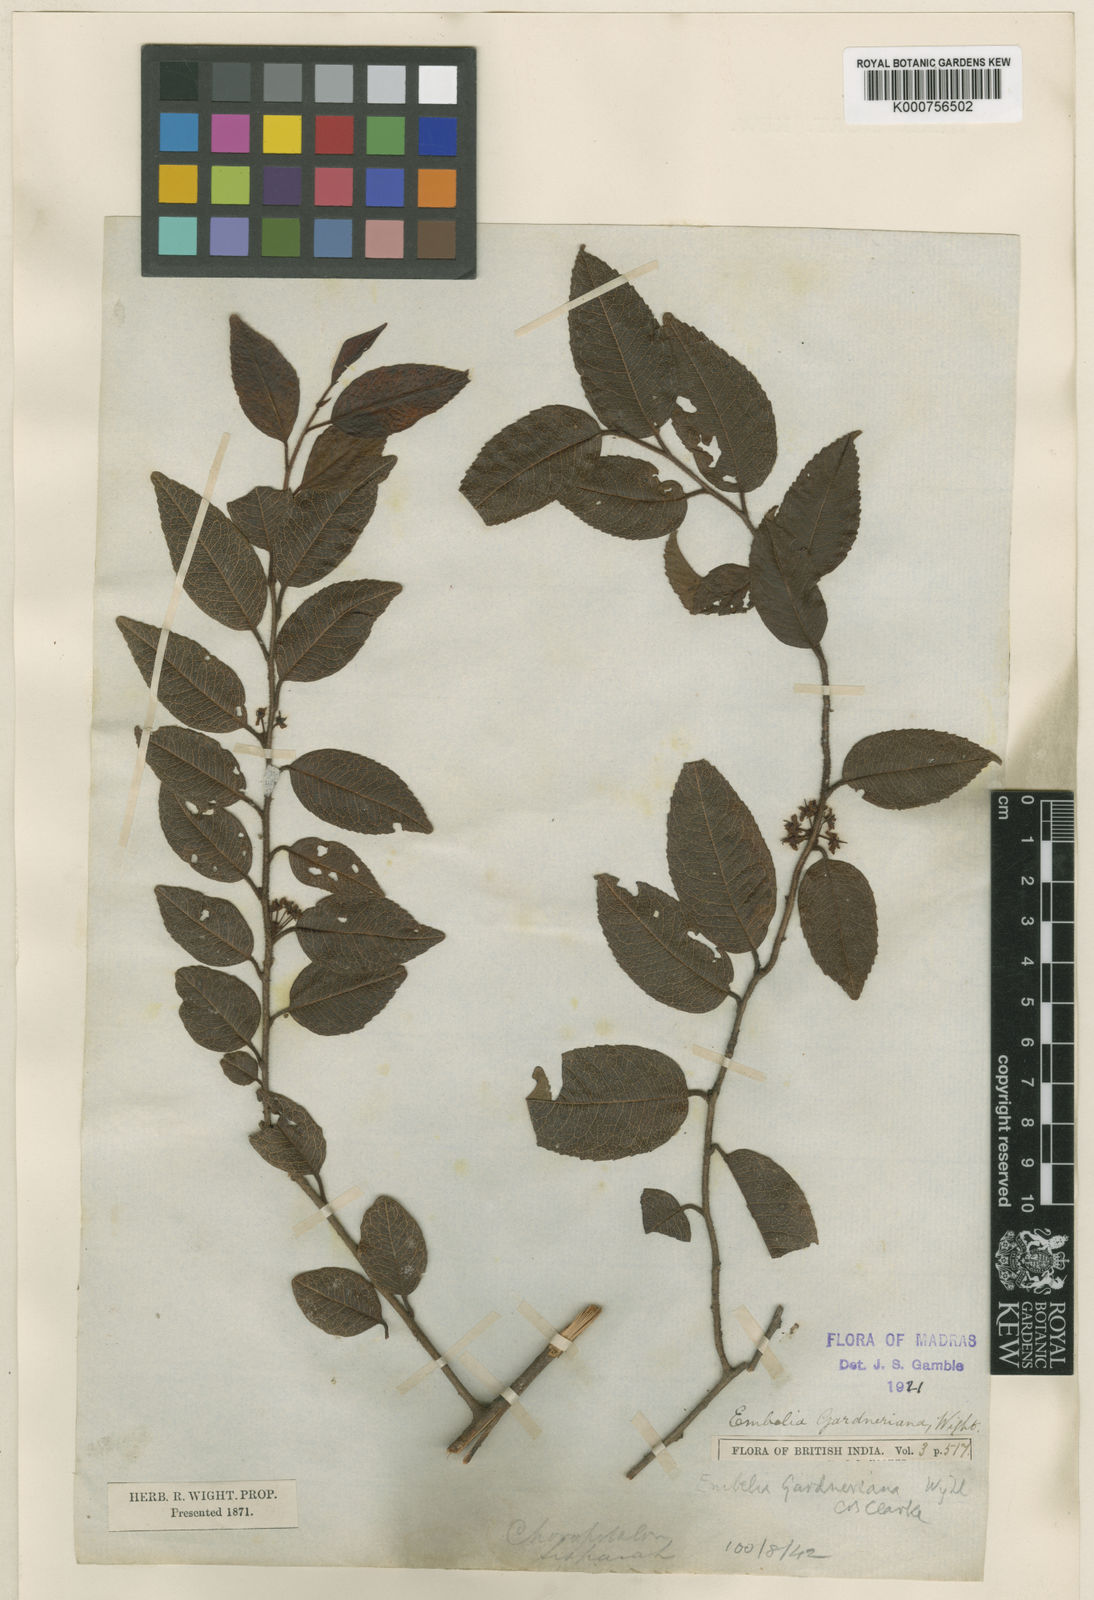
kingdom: Plantae
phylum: Tracheophyta
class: Magnoliopsida
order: Ericales
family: Primulaceae
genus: Embelia
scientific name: Embelia gardneriana
